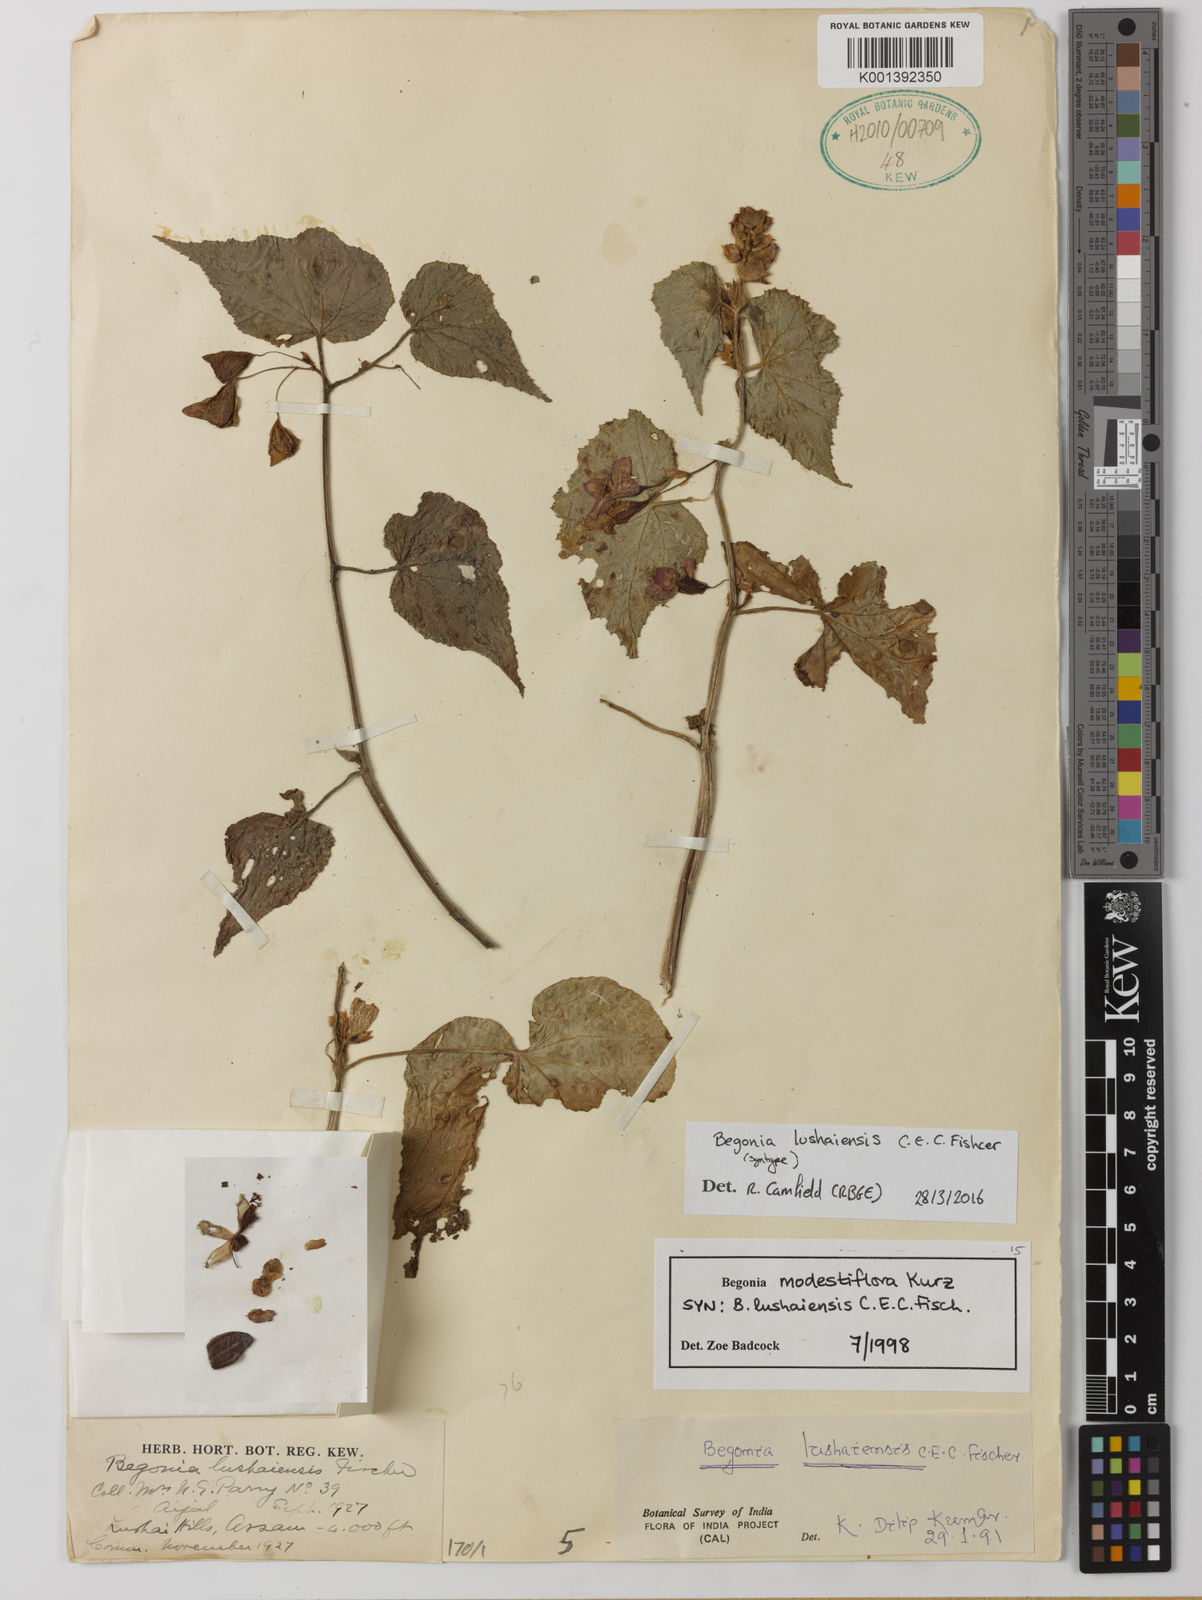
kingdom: Plantae
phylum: Tracheophyta
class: Magnoliopsida
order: Cucurbitales
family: Begoniaceae
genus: Begonia
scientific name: Begonia
